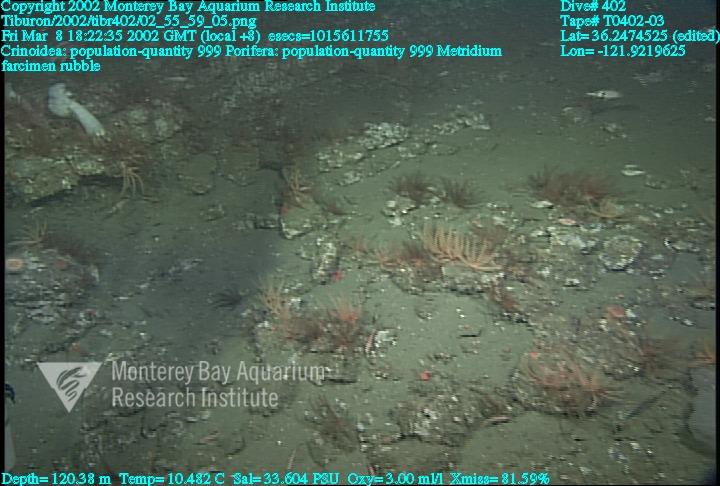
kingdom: Animalia
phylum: Porifera
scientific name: Porifera
